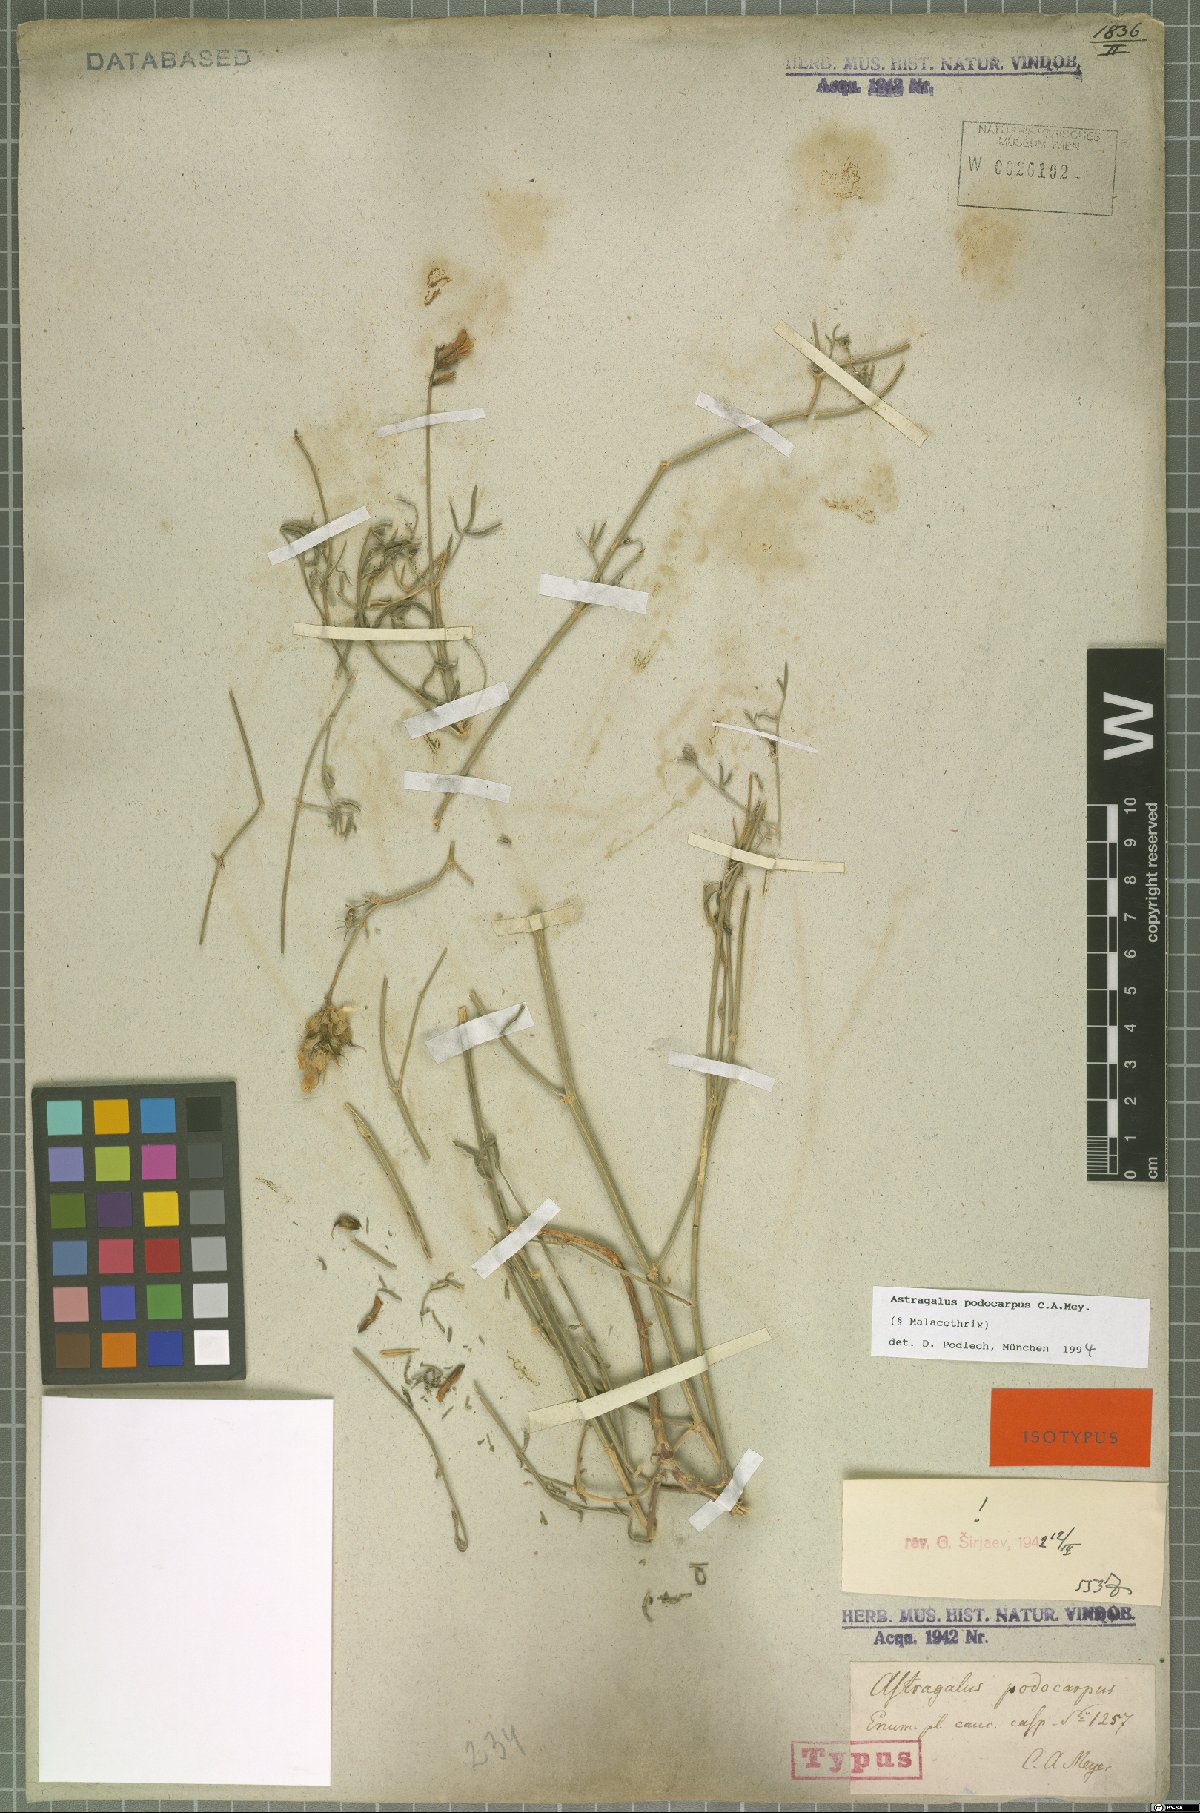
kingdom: Plantae
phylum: Tracheophyta
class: Magnoliopsida
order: Fabales
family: Fabaceae
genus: Astragalus
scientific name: Astragalus podocarpus
